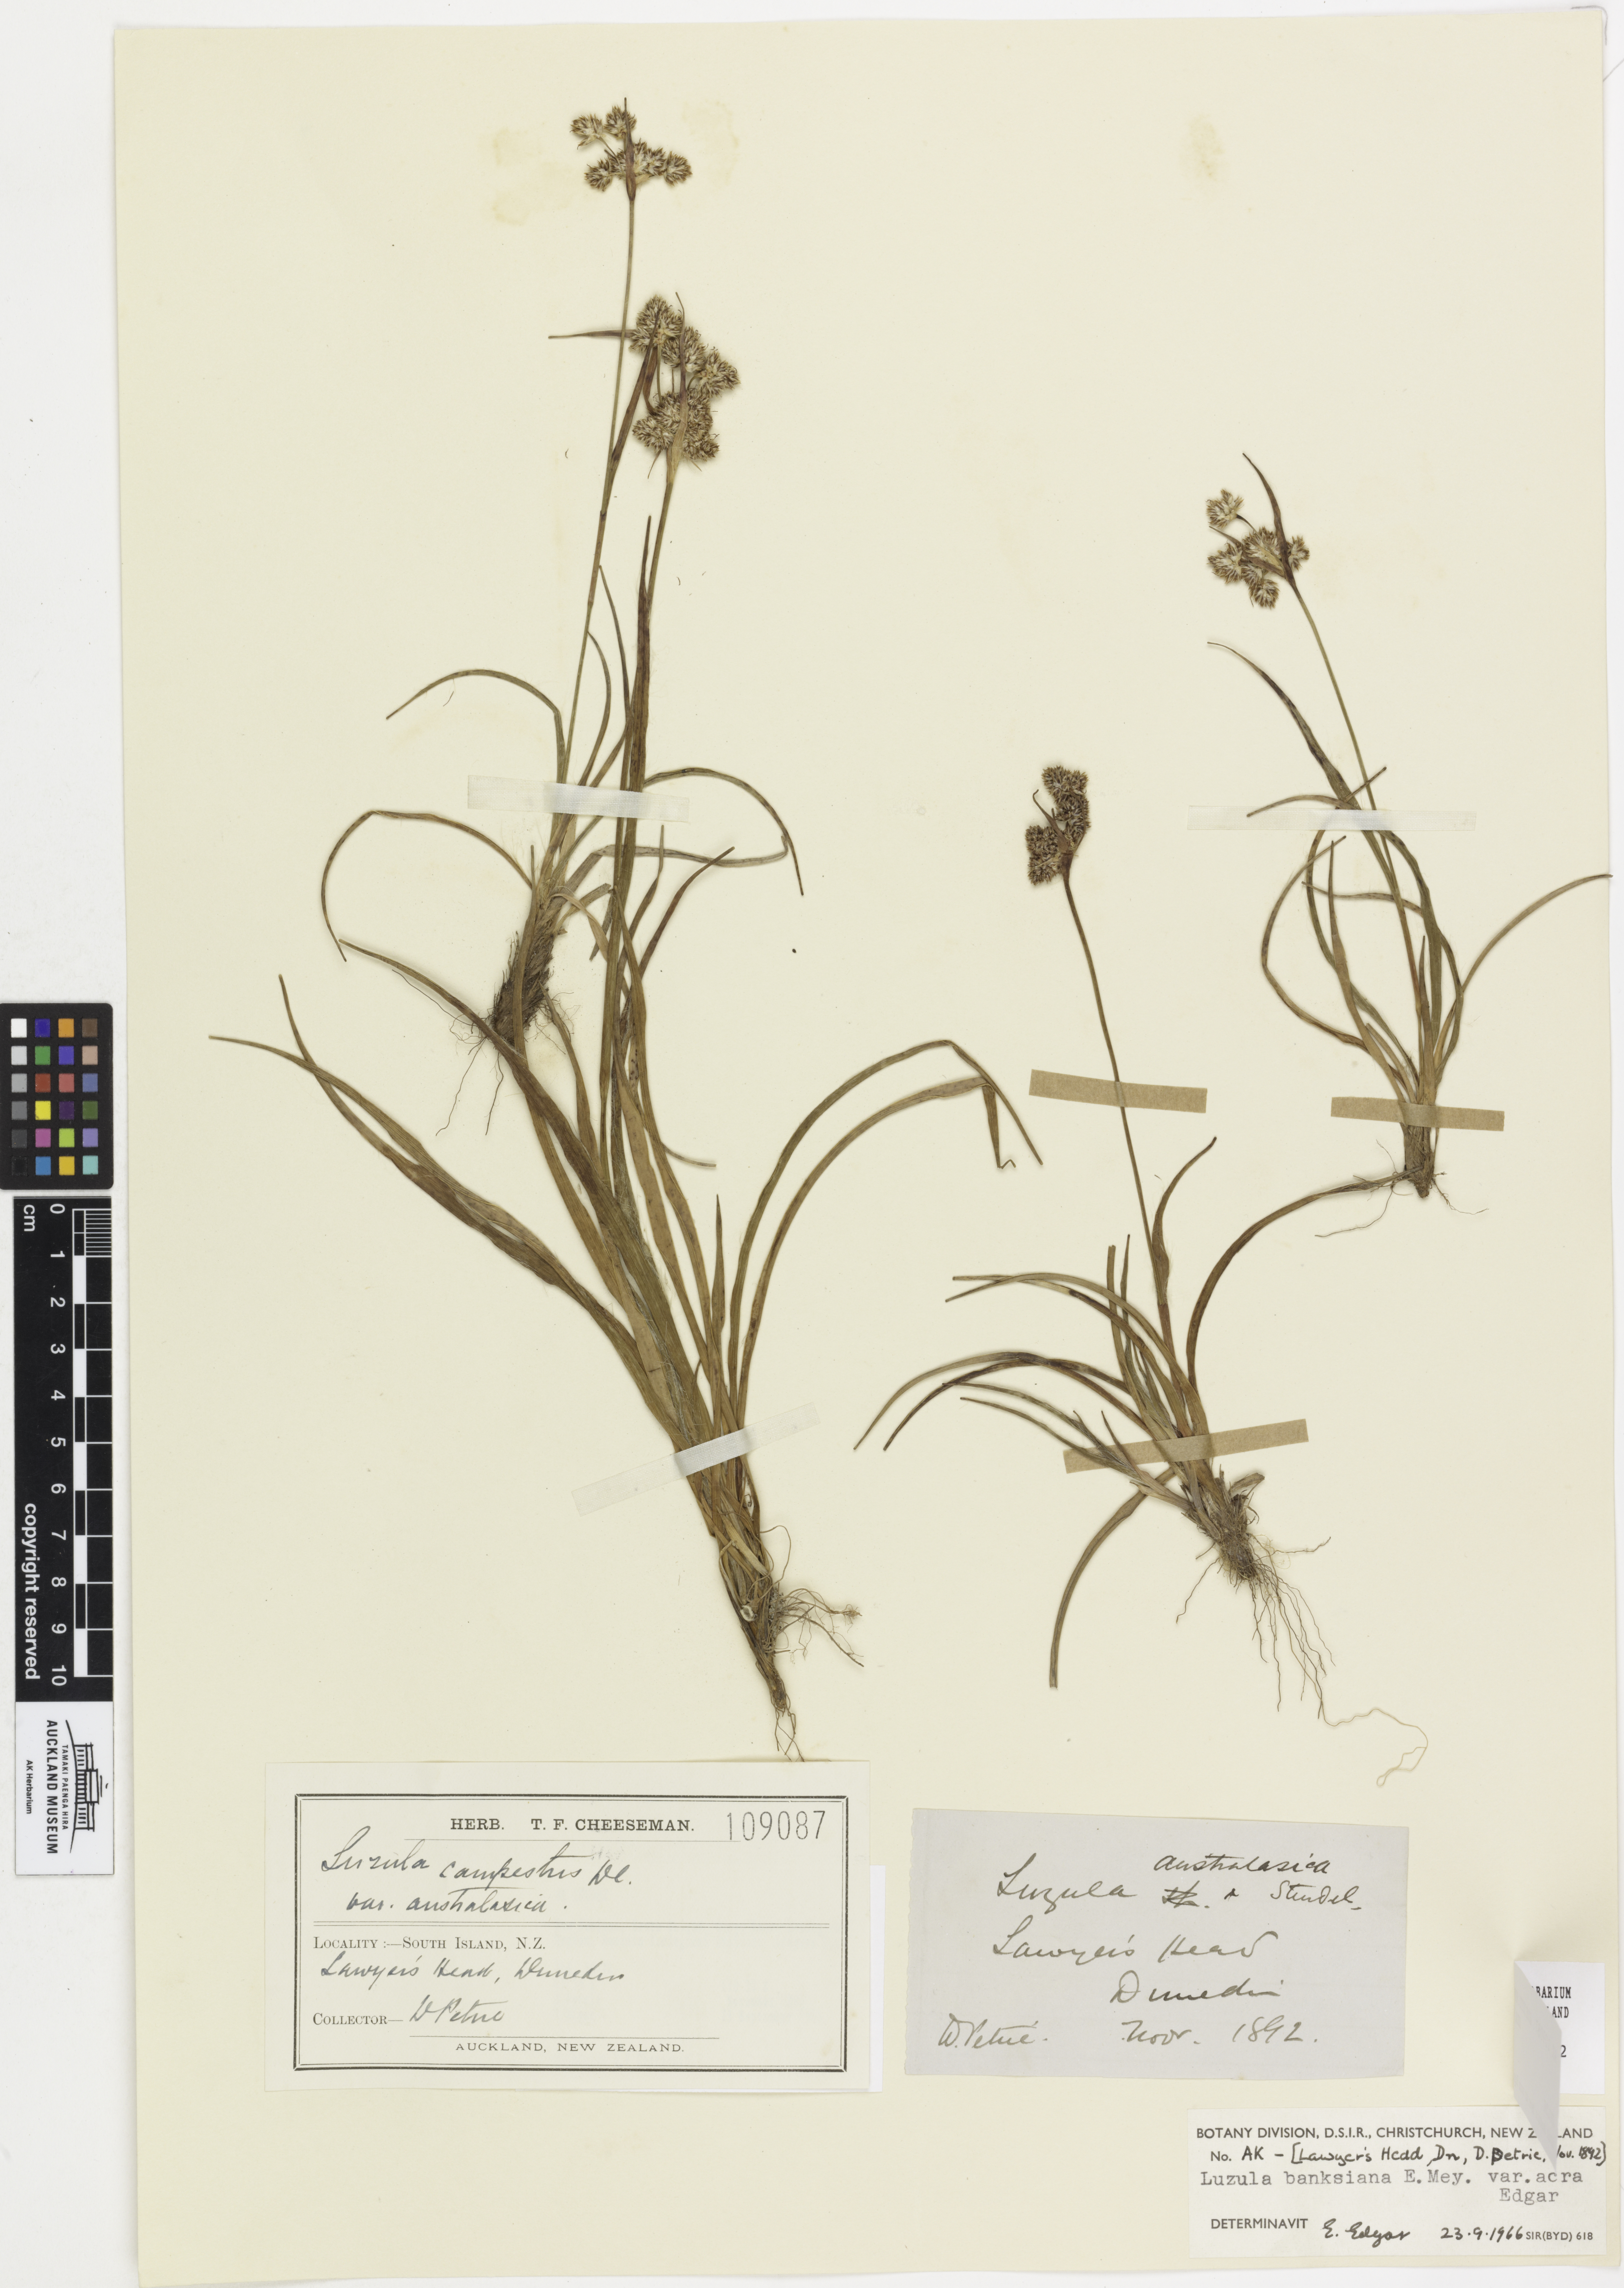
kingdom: Plantae
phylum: Tracheophyta
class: Liliopsida
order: Poales
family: Juncaceae
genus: Luzula
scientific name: Luzula banksiana
